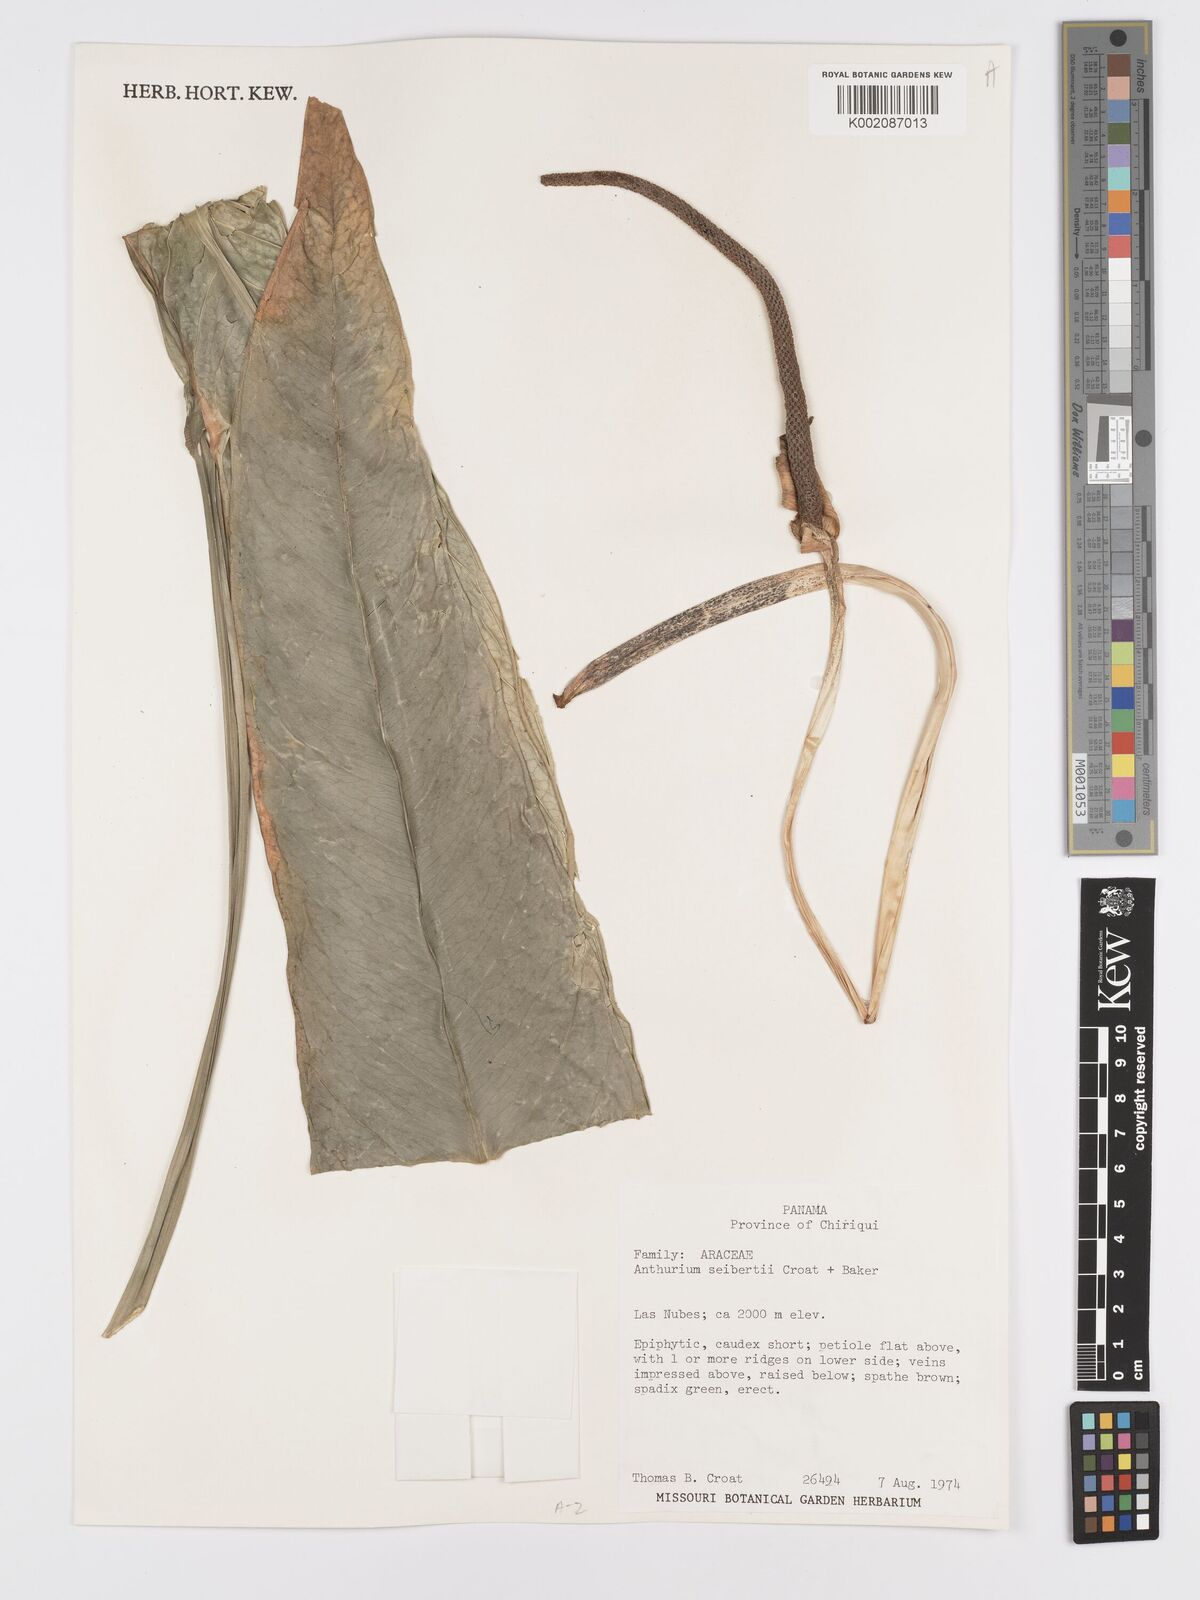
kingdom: Plantae
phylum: Tracheophyta
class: Liliopsida
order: Alismatales
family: Araceae
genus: Anthurium
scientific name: Anthurium seibertii
